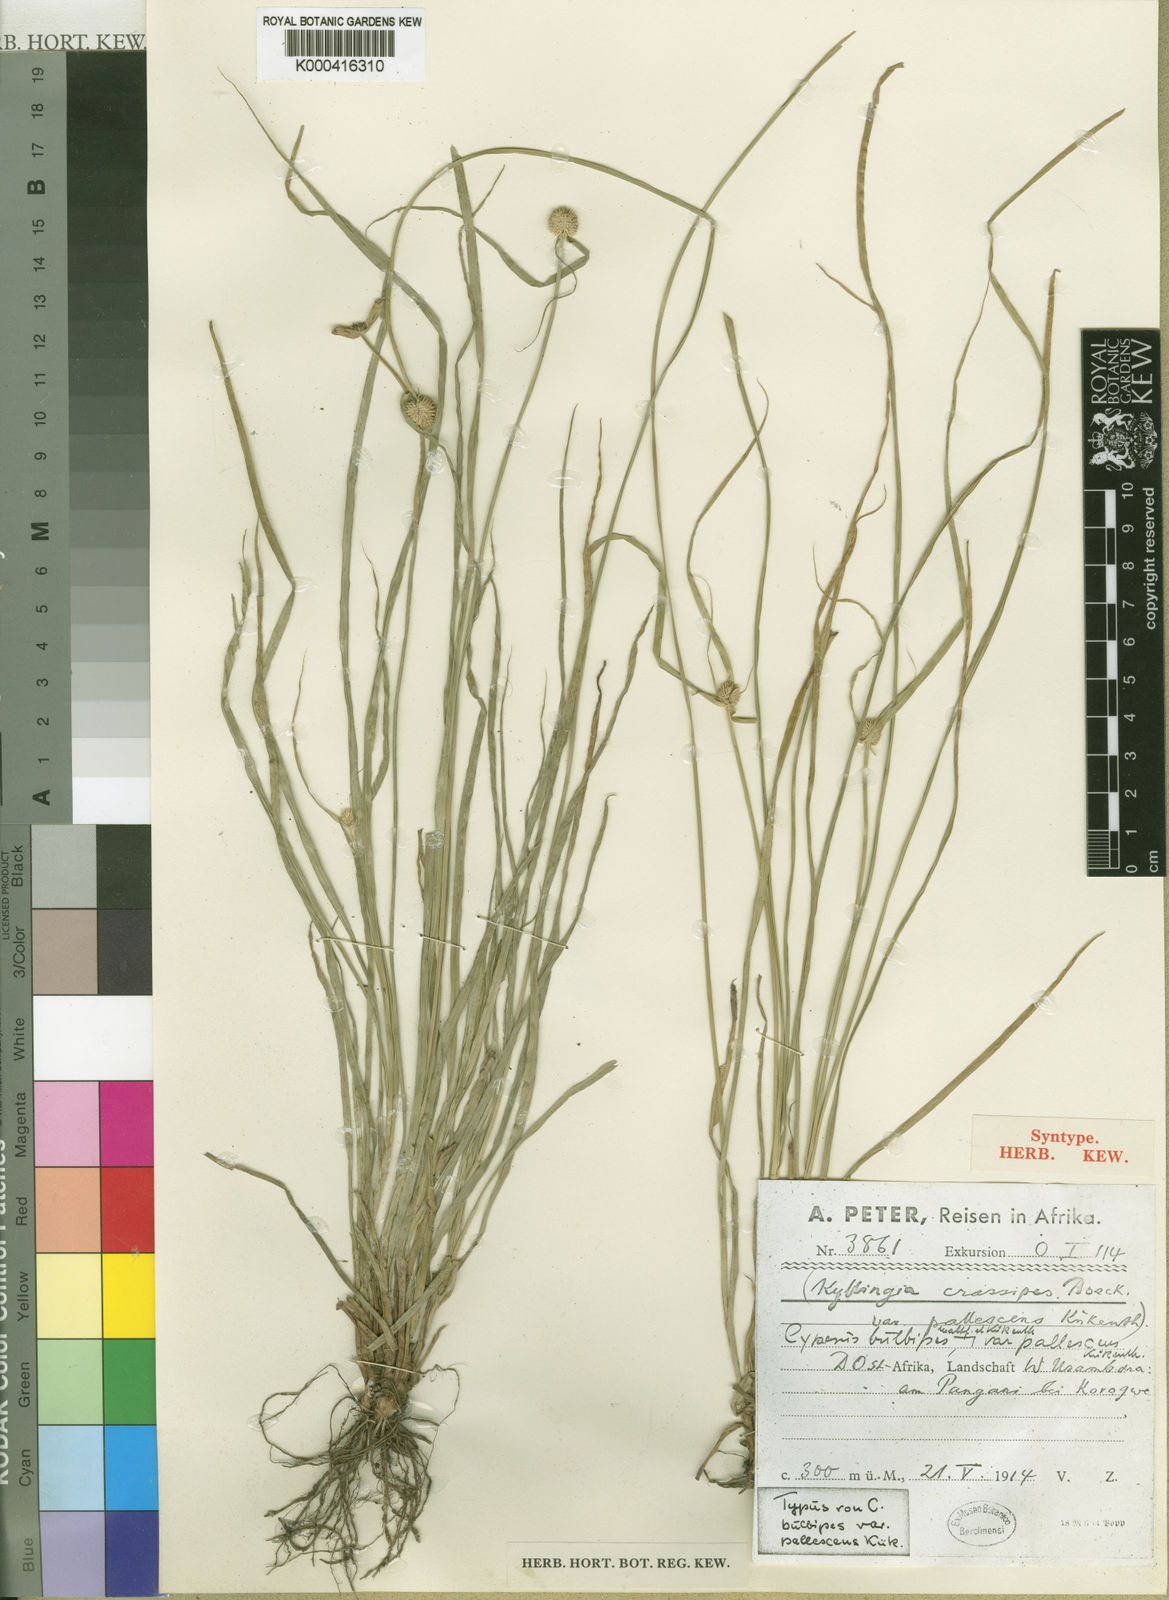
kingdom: Plantae
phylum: Tracheophyta
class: Liliopsida
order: Poales
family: Cyperaceae
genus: Cyperus
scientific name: Cyperus bulbipes
